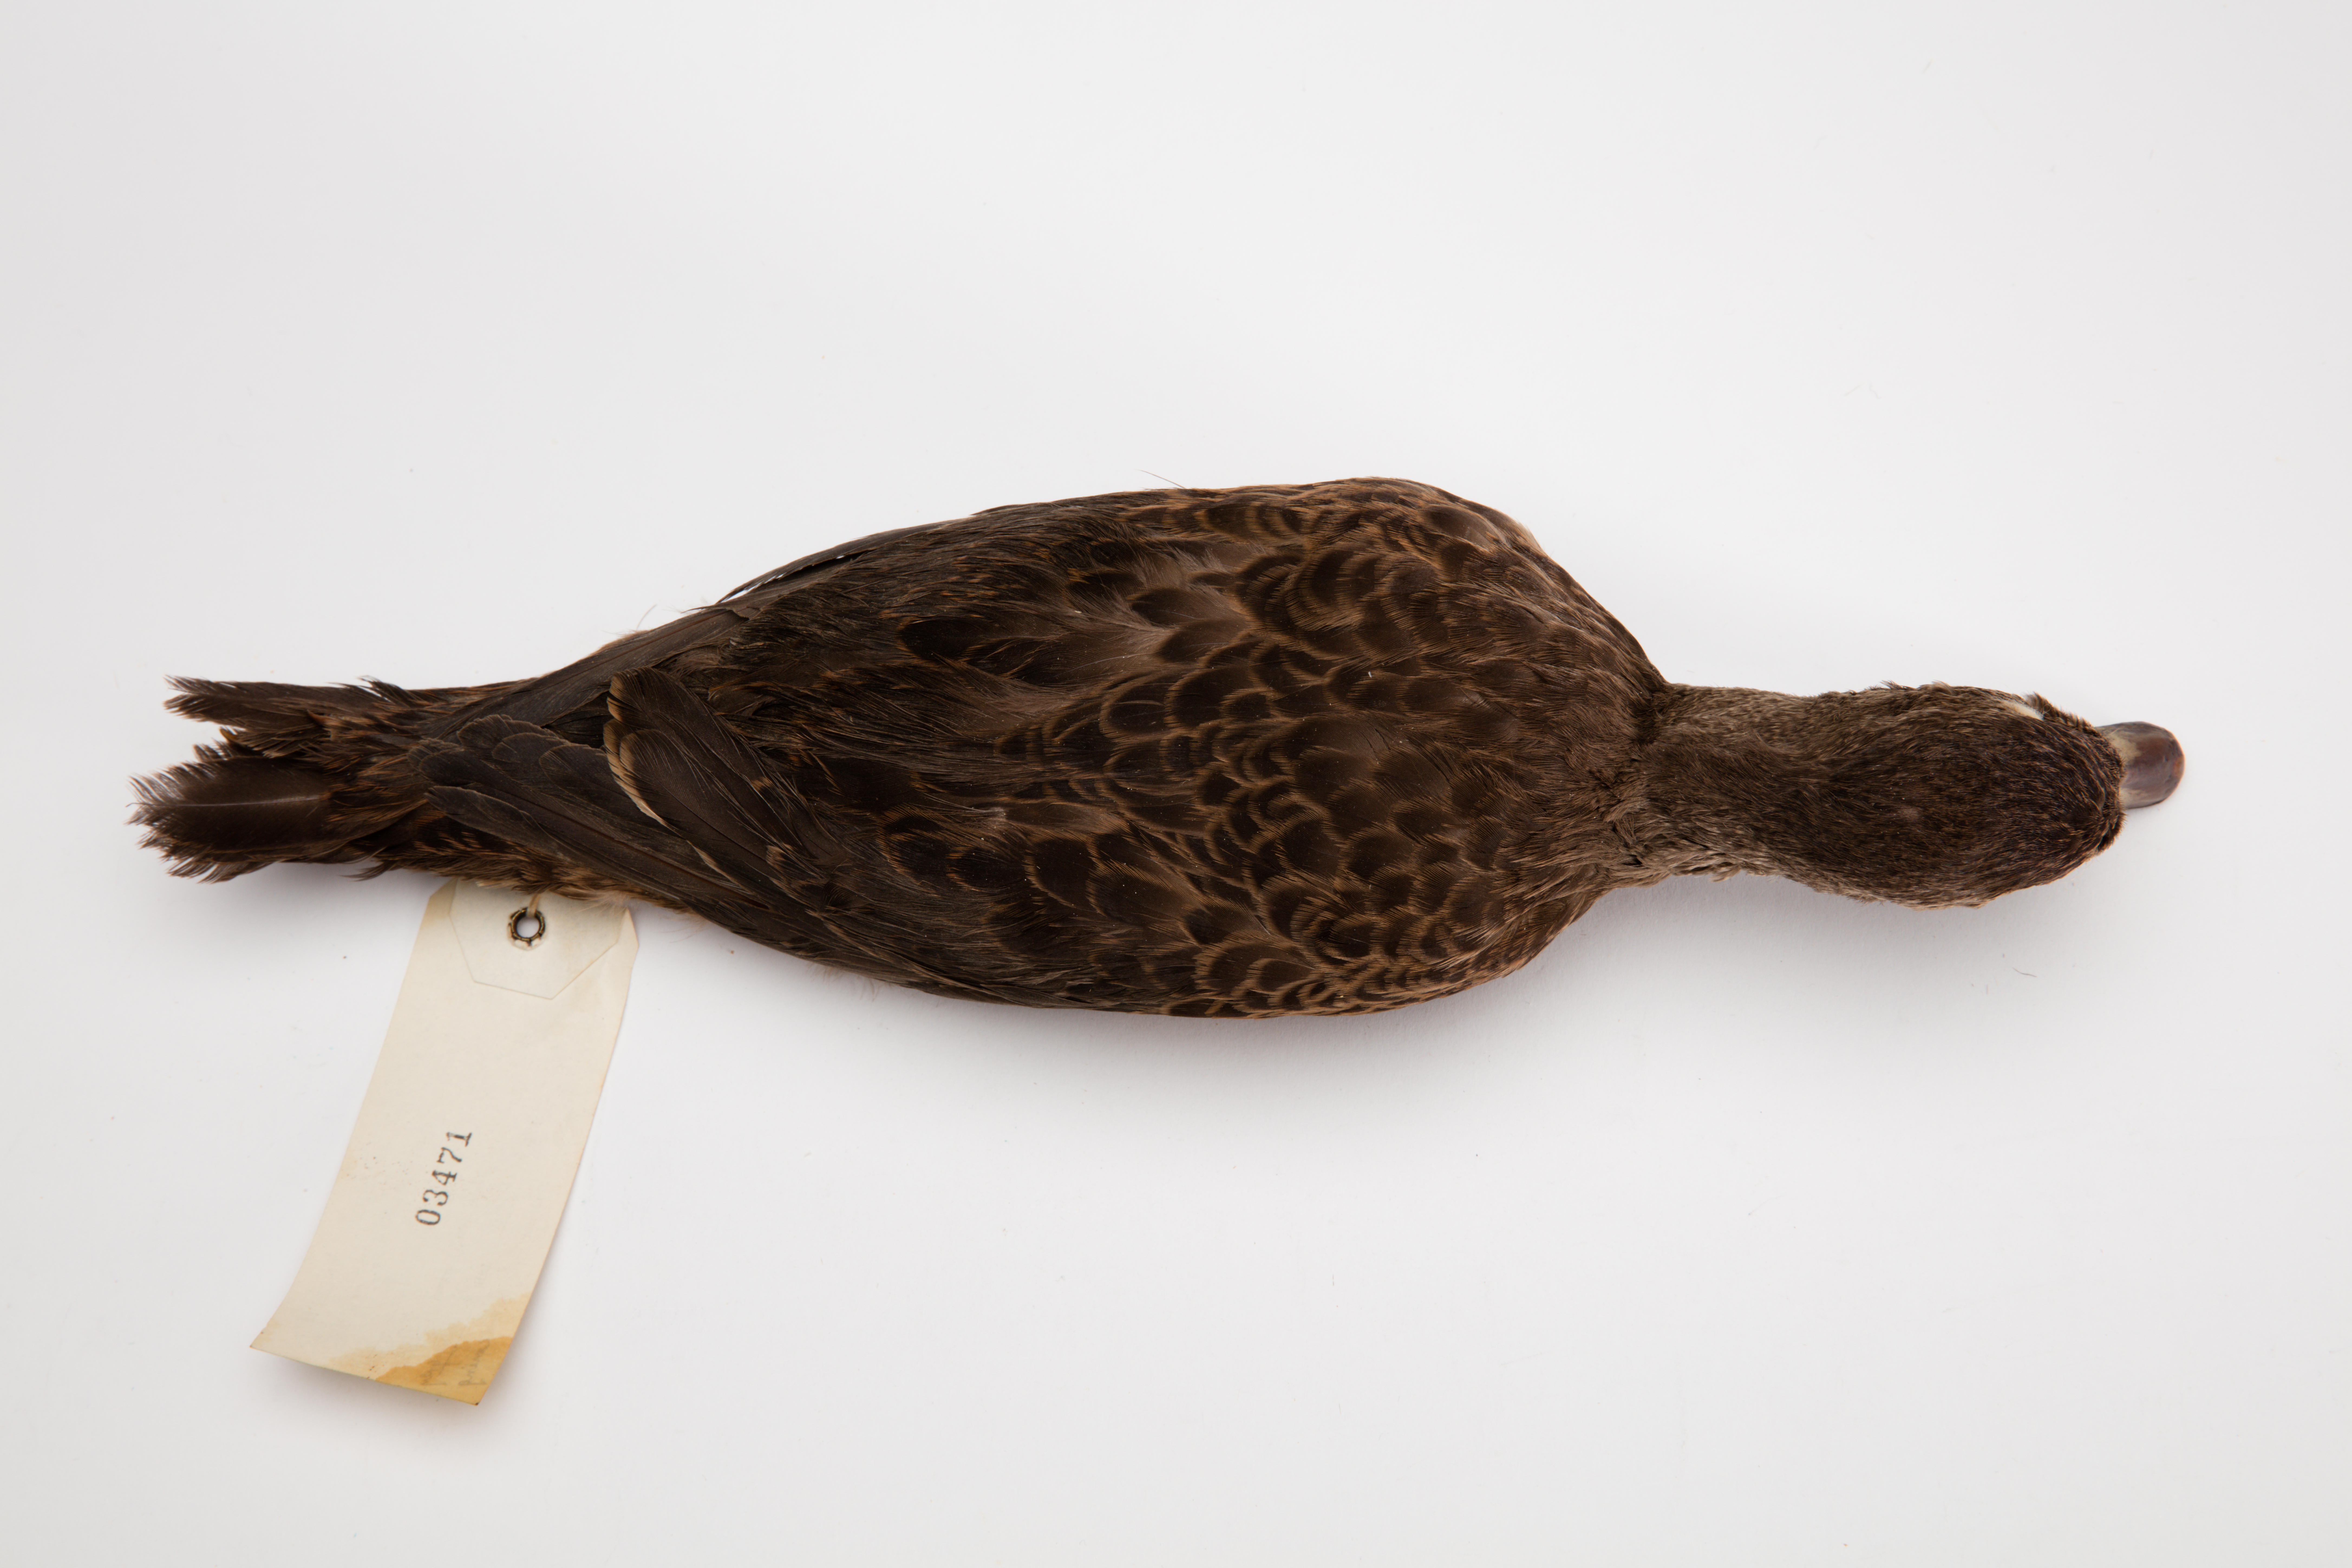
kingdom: Animalia
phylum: Chordata
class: Aves
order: Anseriformes
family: Anatidae
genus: Anas
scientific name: Anas chlorotis
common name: Brown teal
